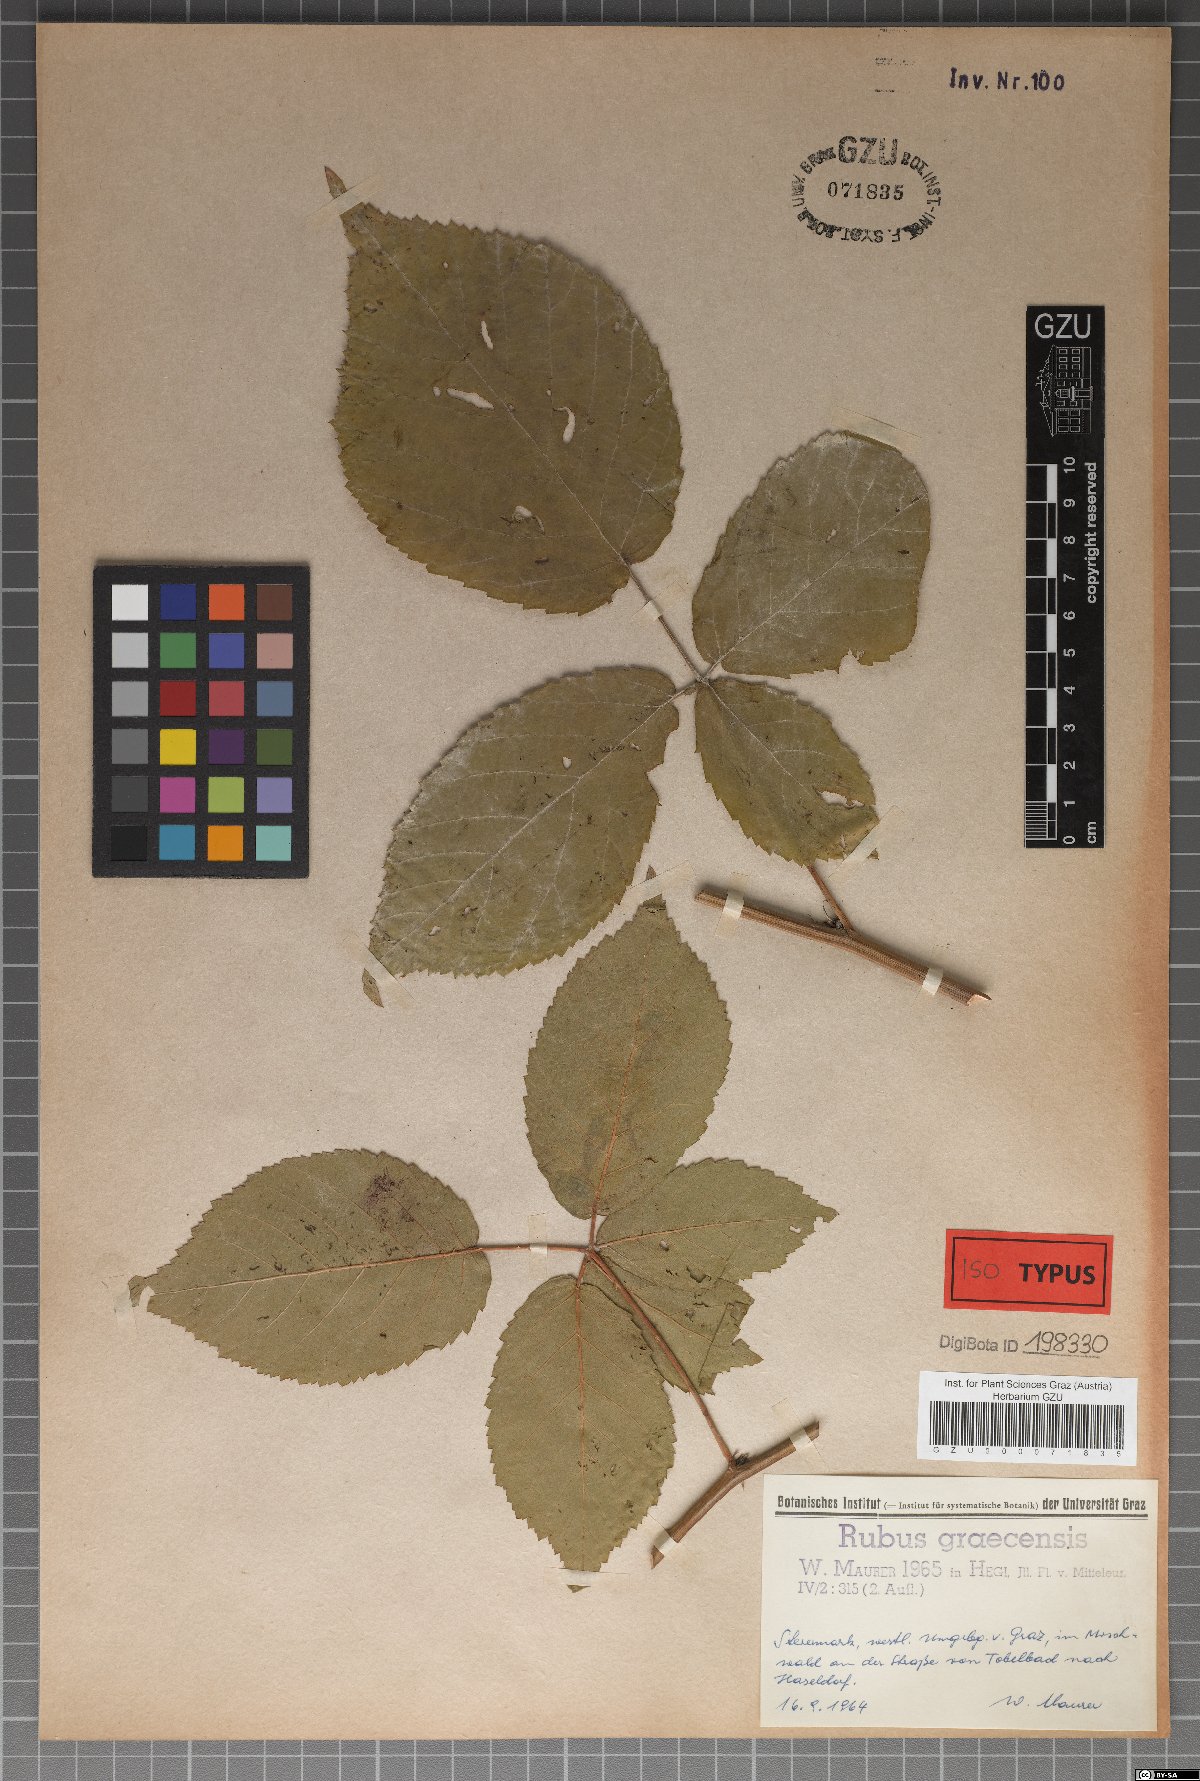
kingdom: Plantae
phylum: Tracheophyta
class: Magnoliopsida
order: Rosales
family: Rosaceae
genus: Rubus
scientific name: Rubus graecensis
